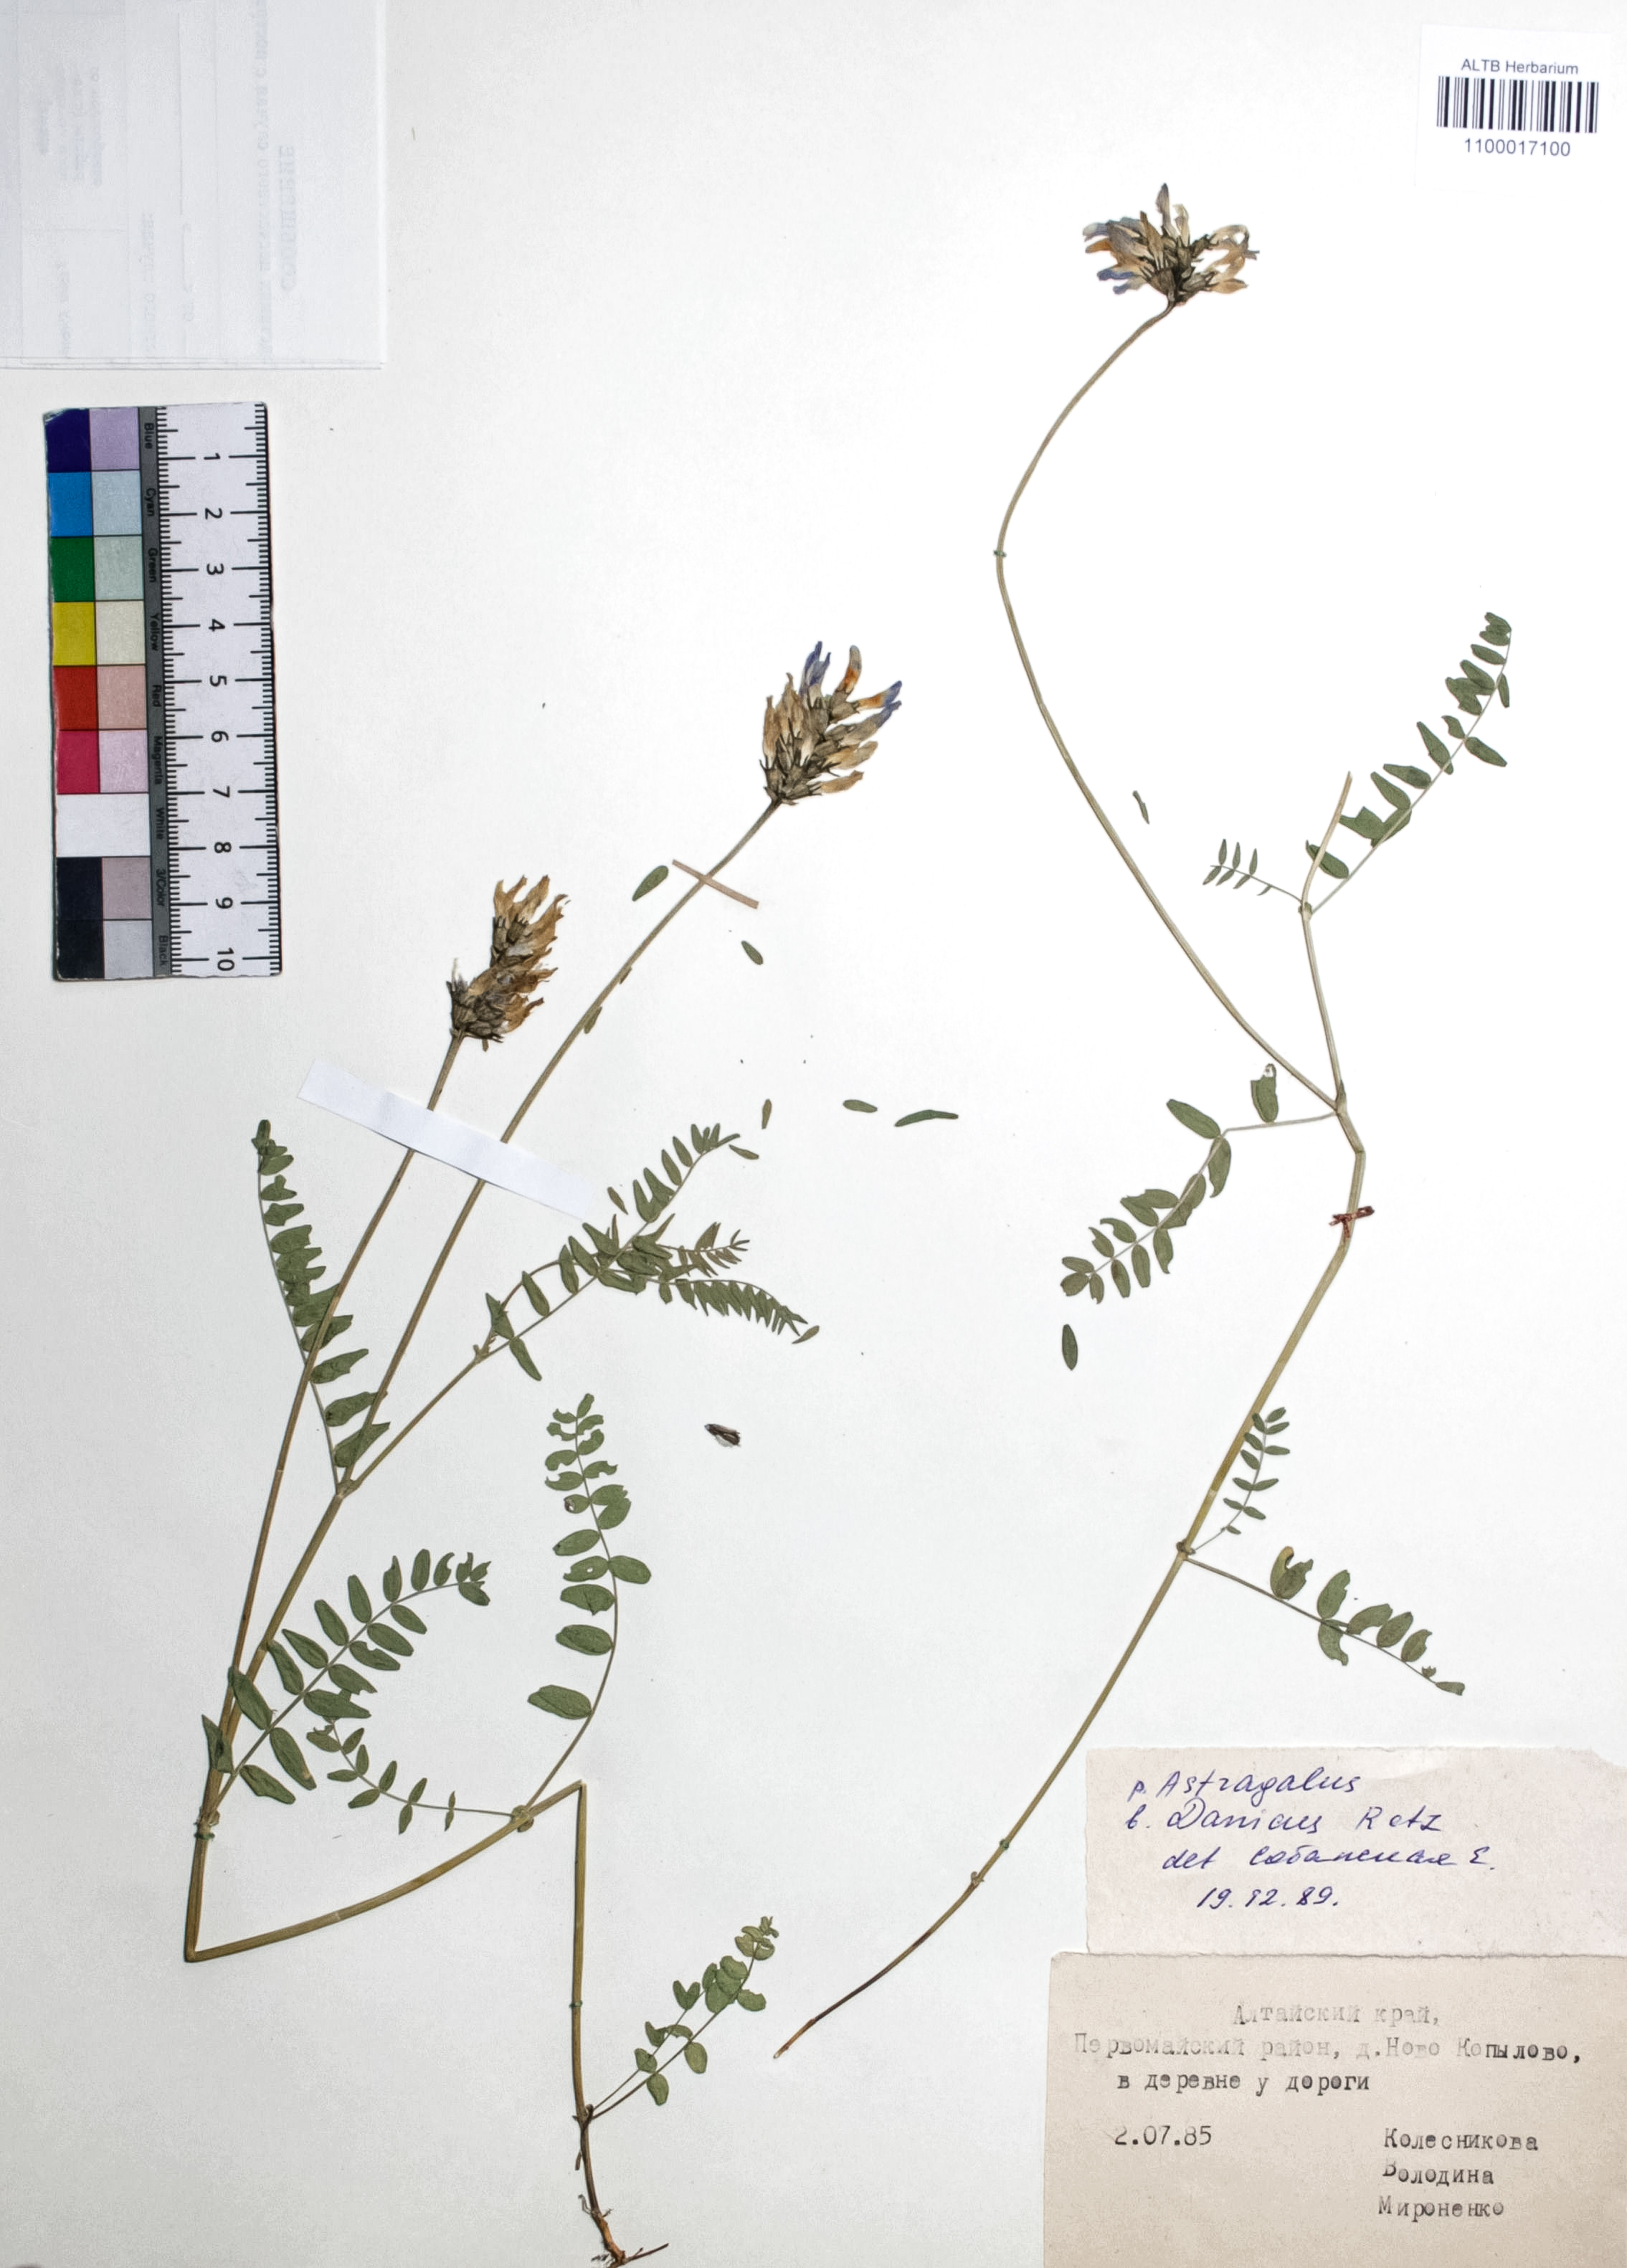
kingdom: Plantae
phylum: Tracheophyta
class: Magnoliopsida
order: Fabales
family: Fabaceae
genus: Astragalus
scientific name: Astragalus danicus
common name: Purple milk-vetch
